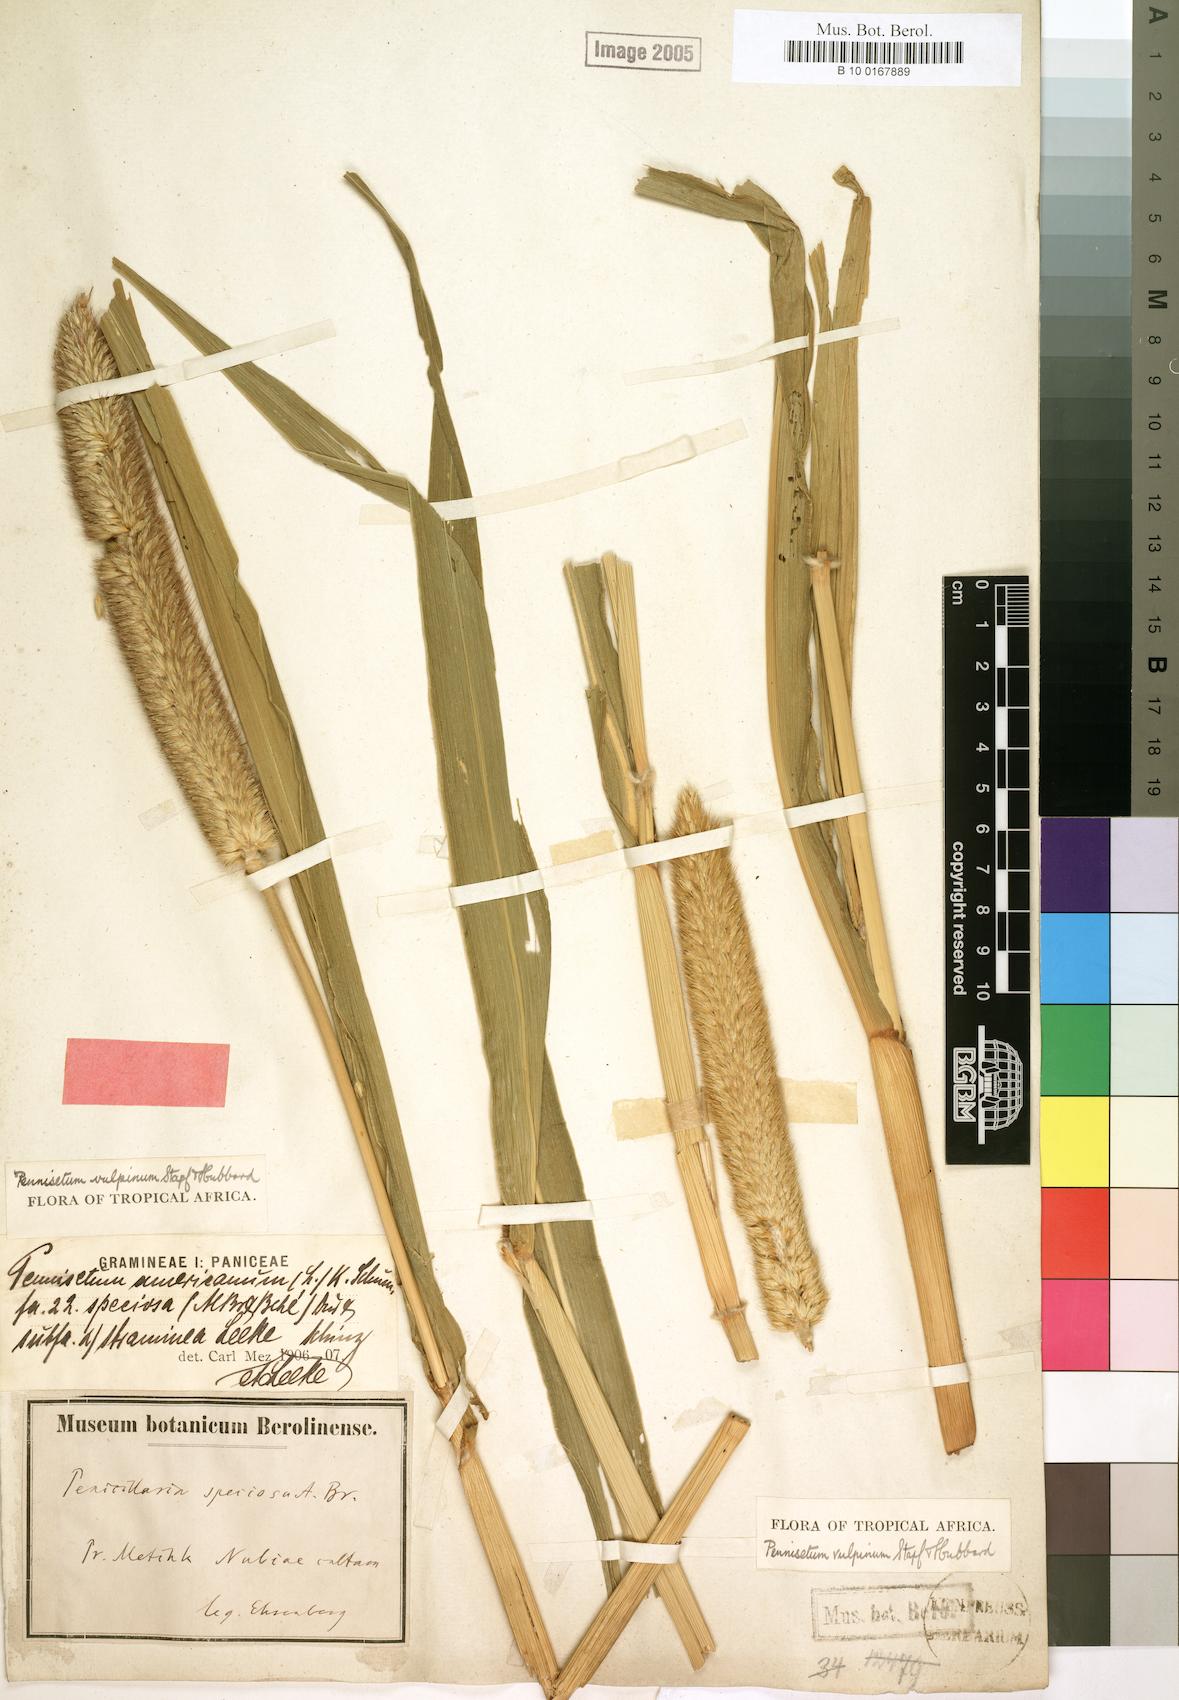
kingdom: Plantae
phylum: Tracheophyta
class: Liliopsida
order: Poales
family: Poaceae
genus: Cenchrus
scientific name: Cenchrus sieberianus
